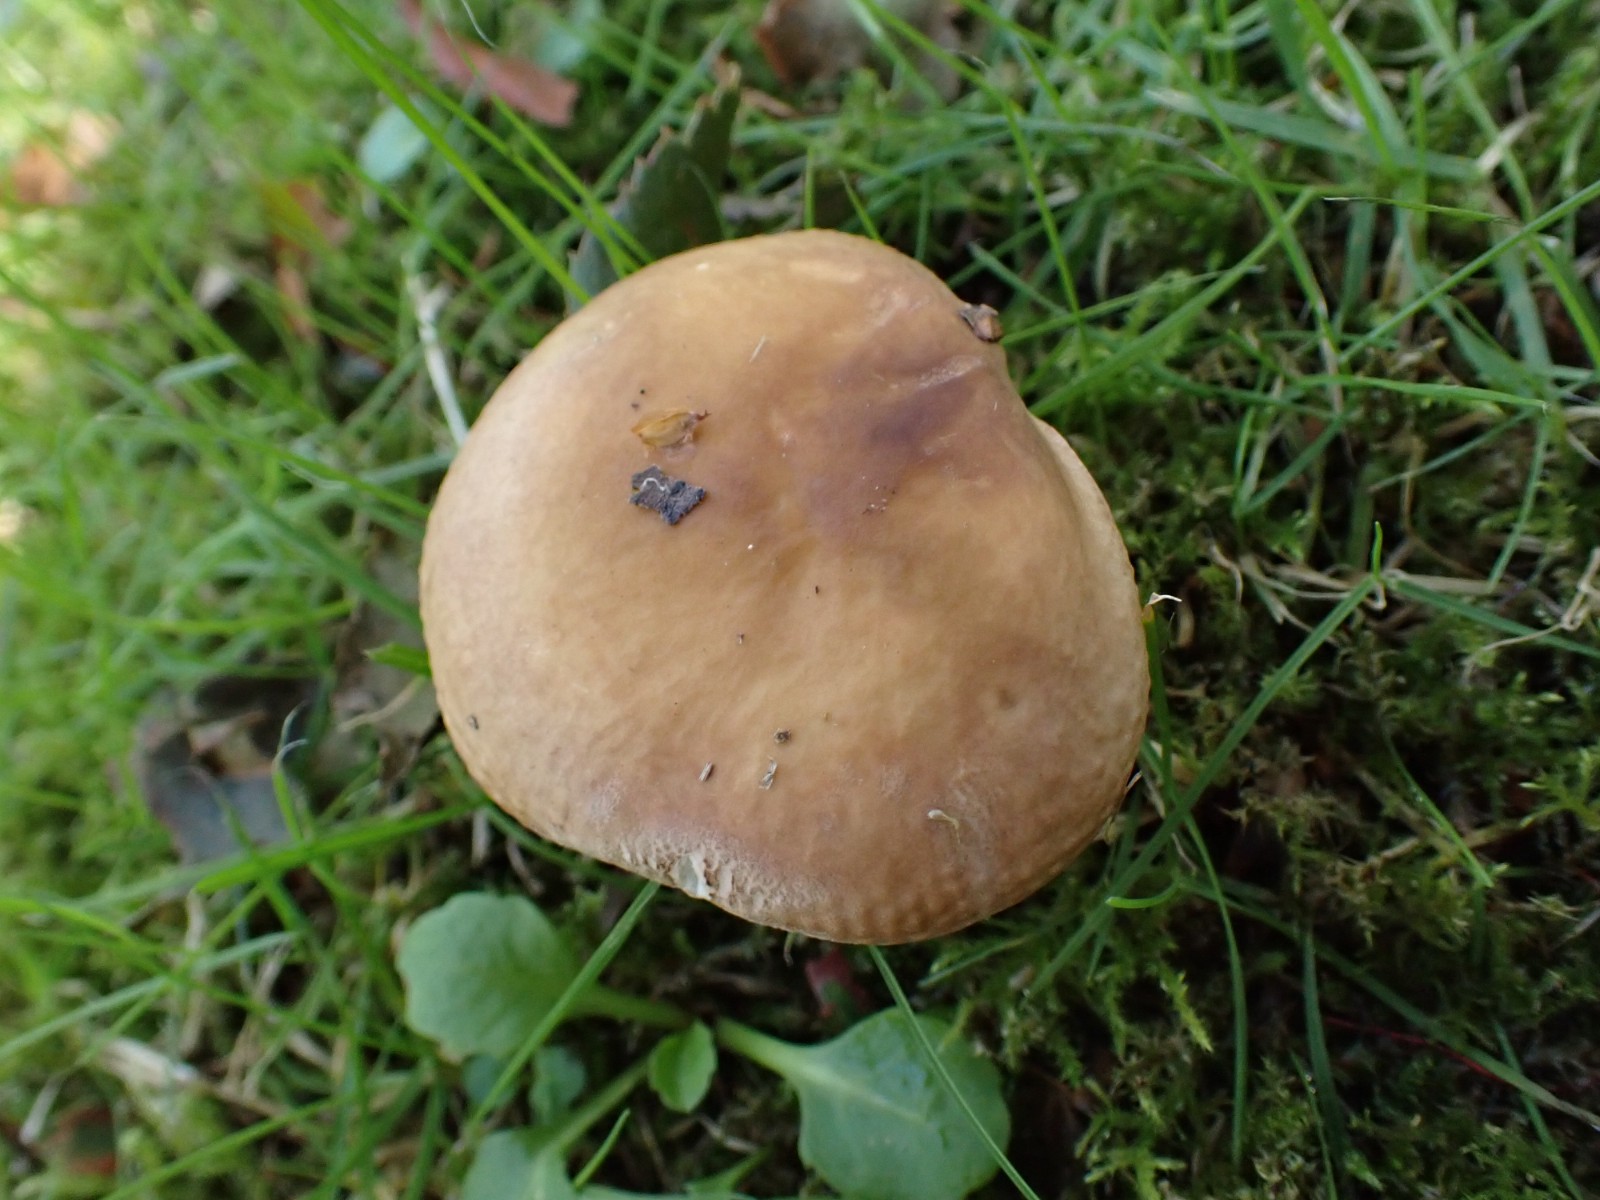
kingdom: Fungi
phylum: Basidiomycota
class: Agaricomycetes
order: Russulales
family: Russulaceae
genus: Russula
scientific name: Russula
